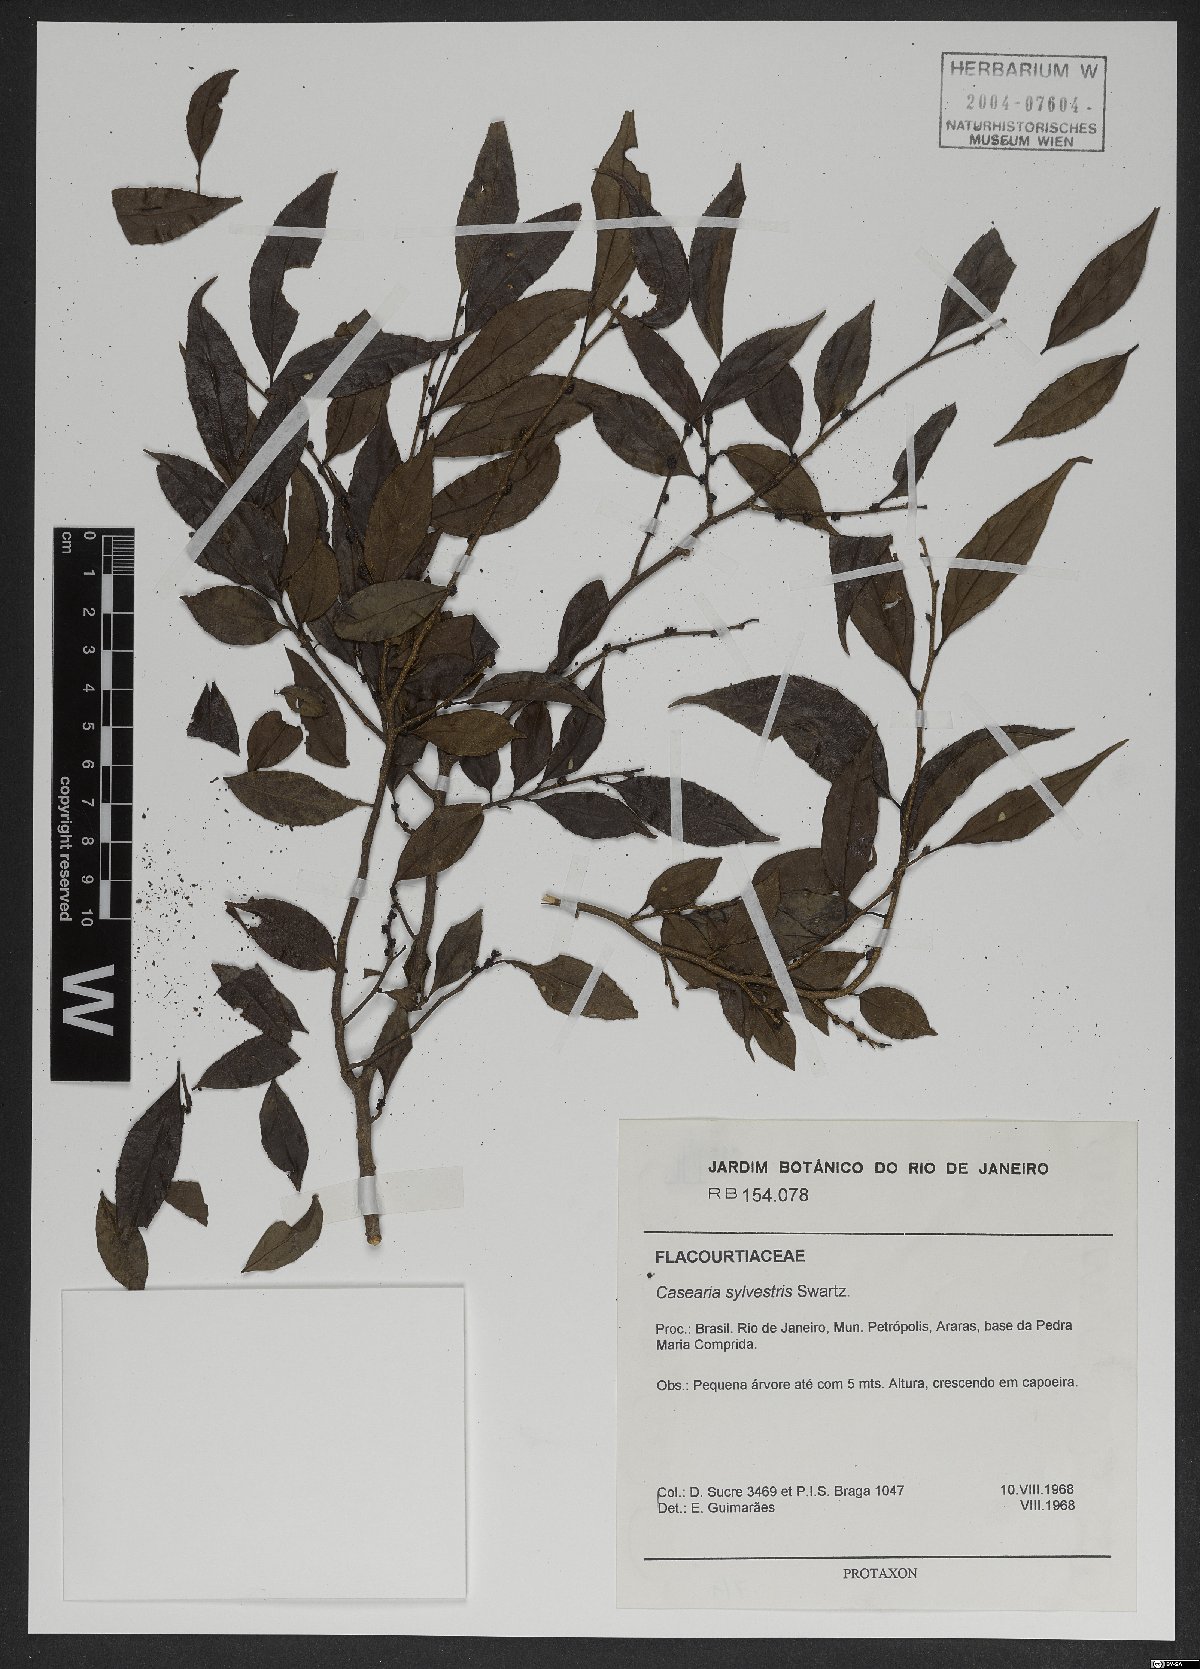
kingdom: Plantae
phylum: Tracheophyta
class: Magnoliopsida
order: Malpighiales
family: Salicaceae
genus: Casearia
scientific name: Casearia sylvestris
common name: Wild sage
